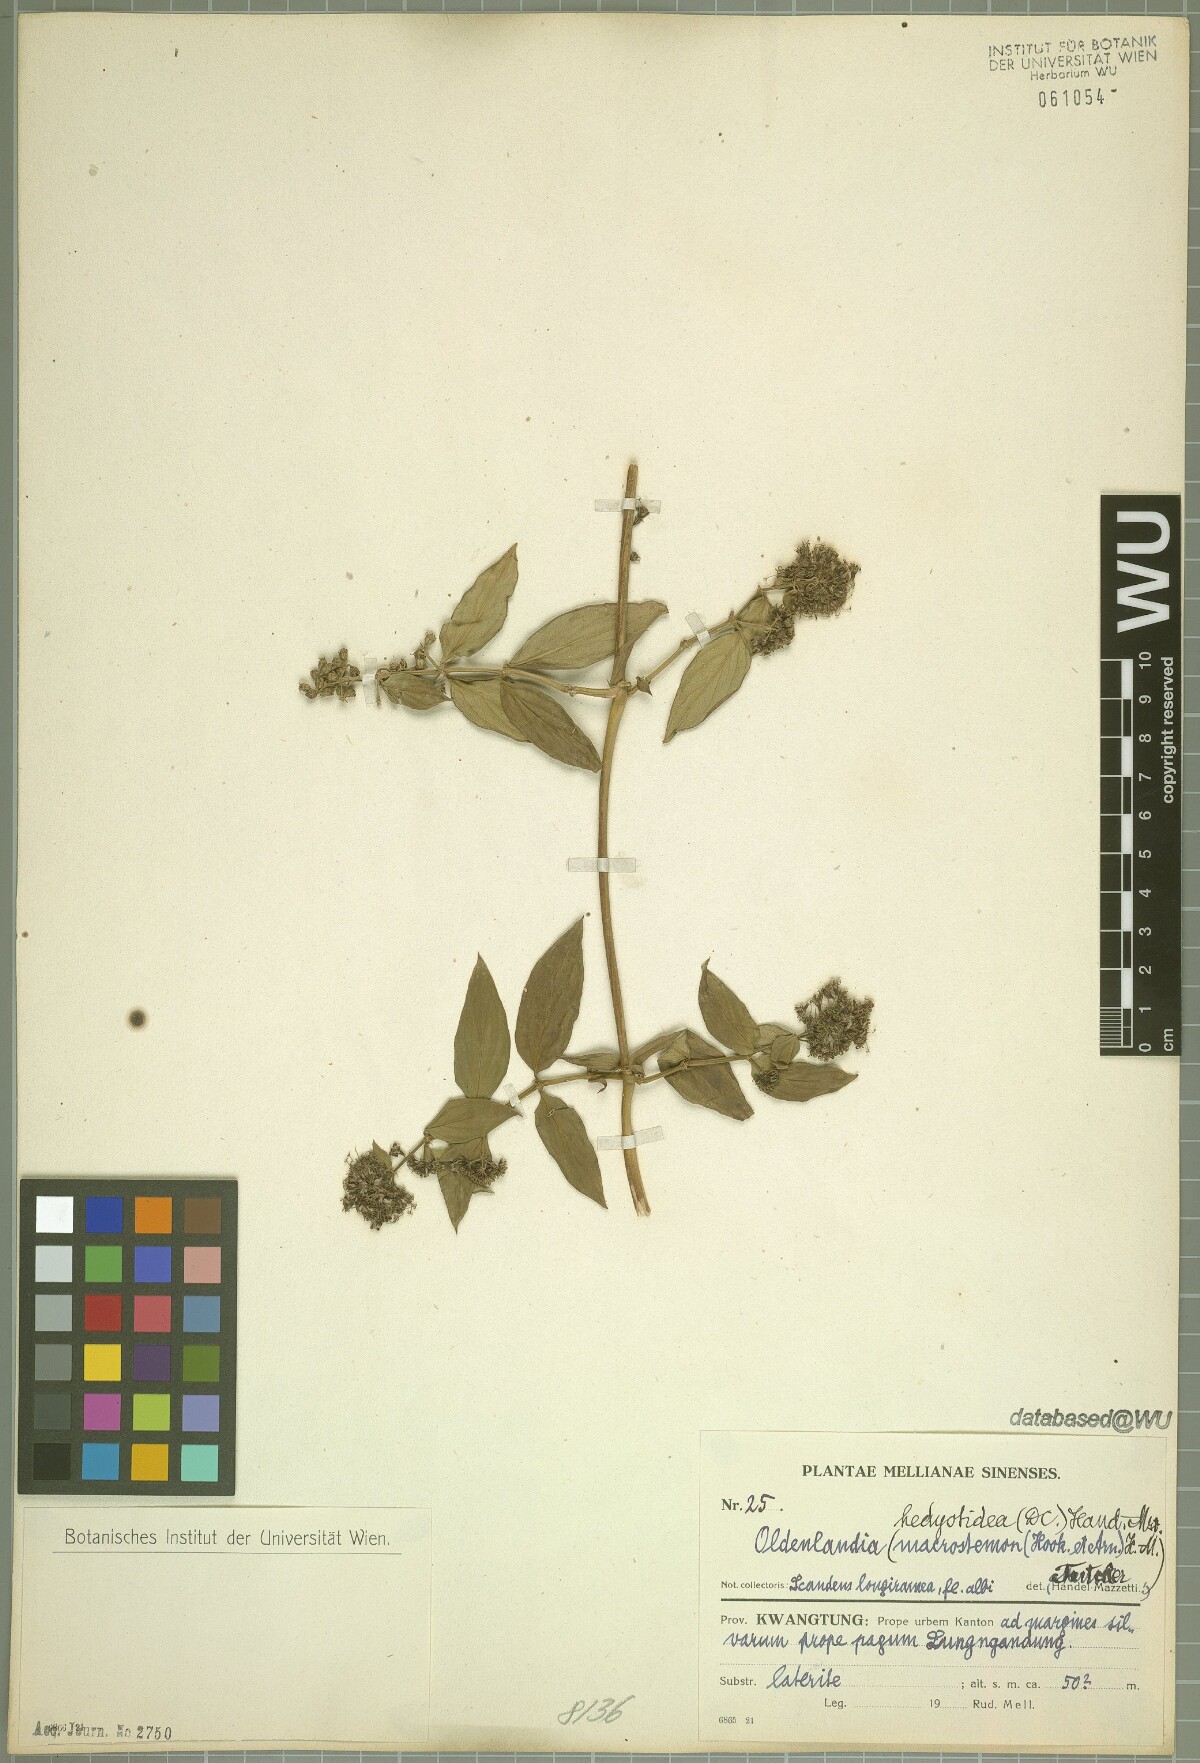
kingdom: Plantae
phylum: Tracheophyta
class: Magnoliopsida
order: Gentianales
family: Rubiaceae
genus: Dimetia
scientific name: Dimetia hedyotidea
